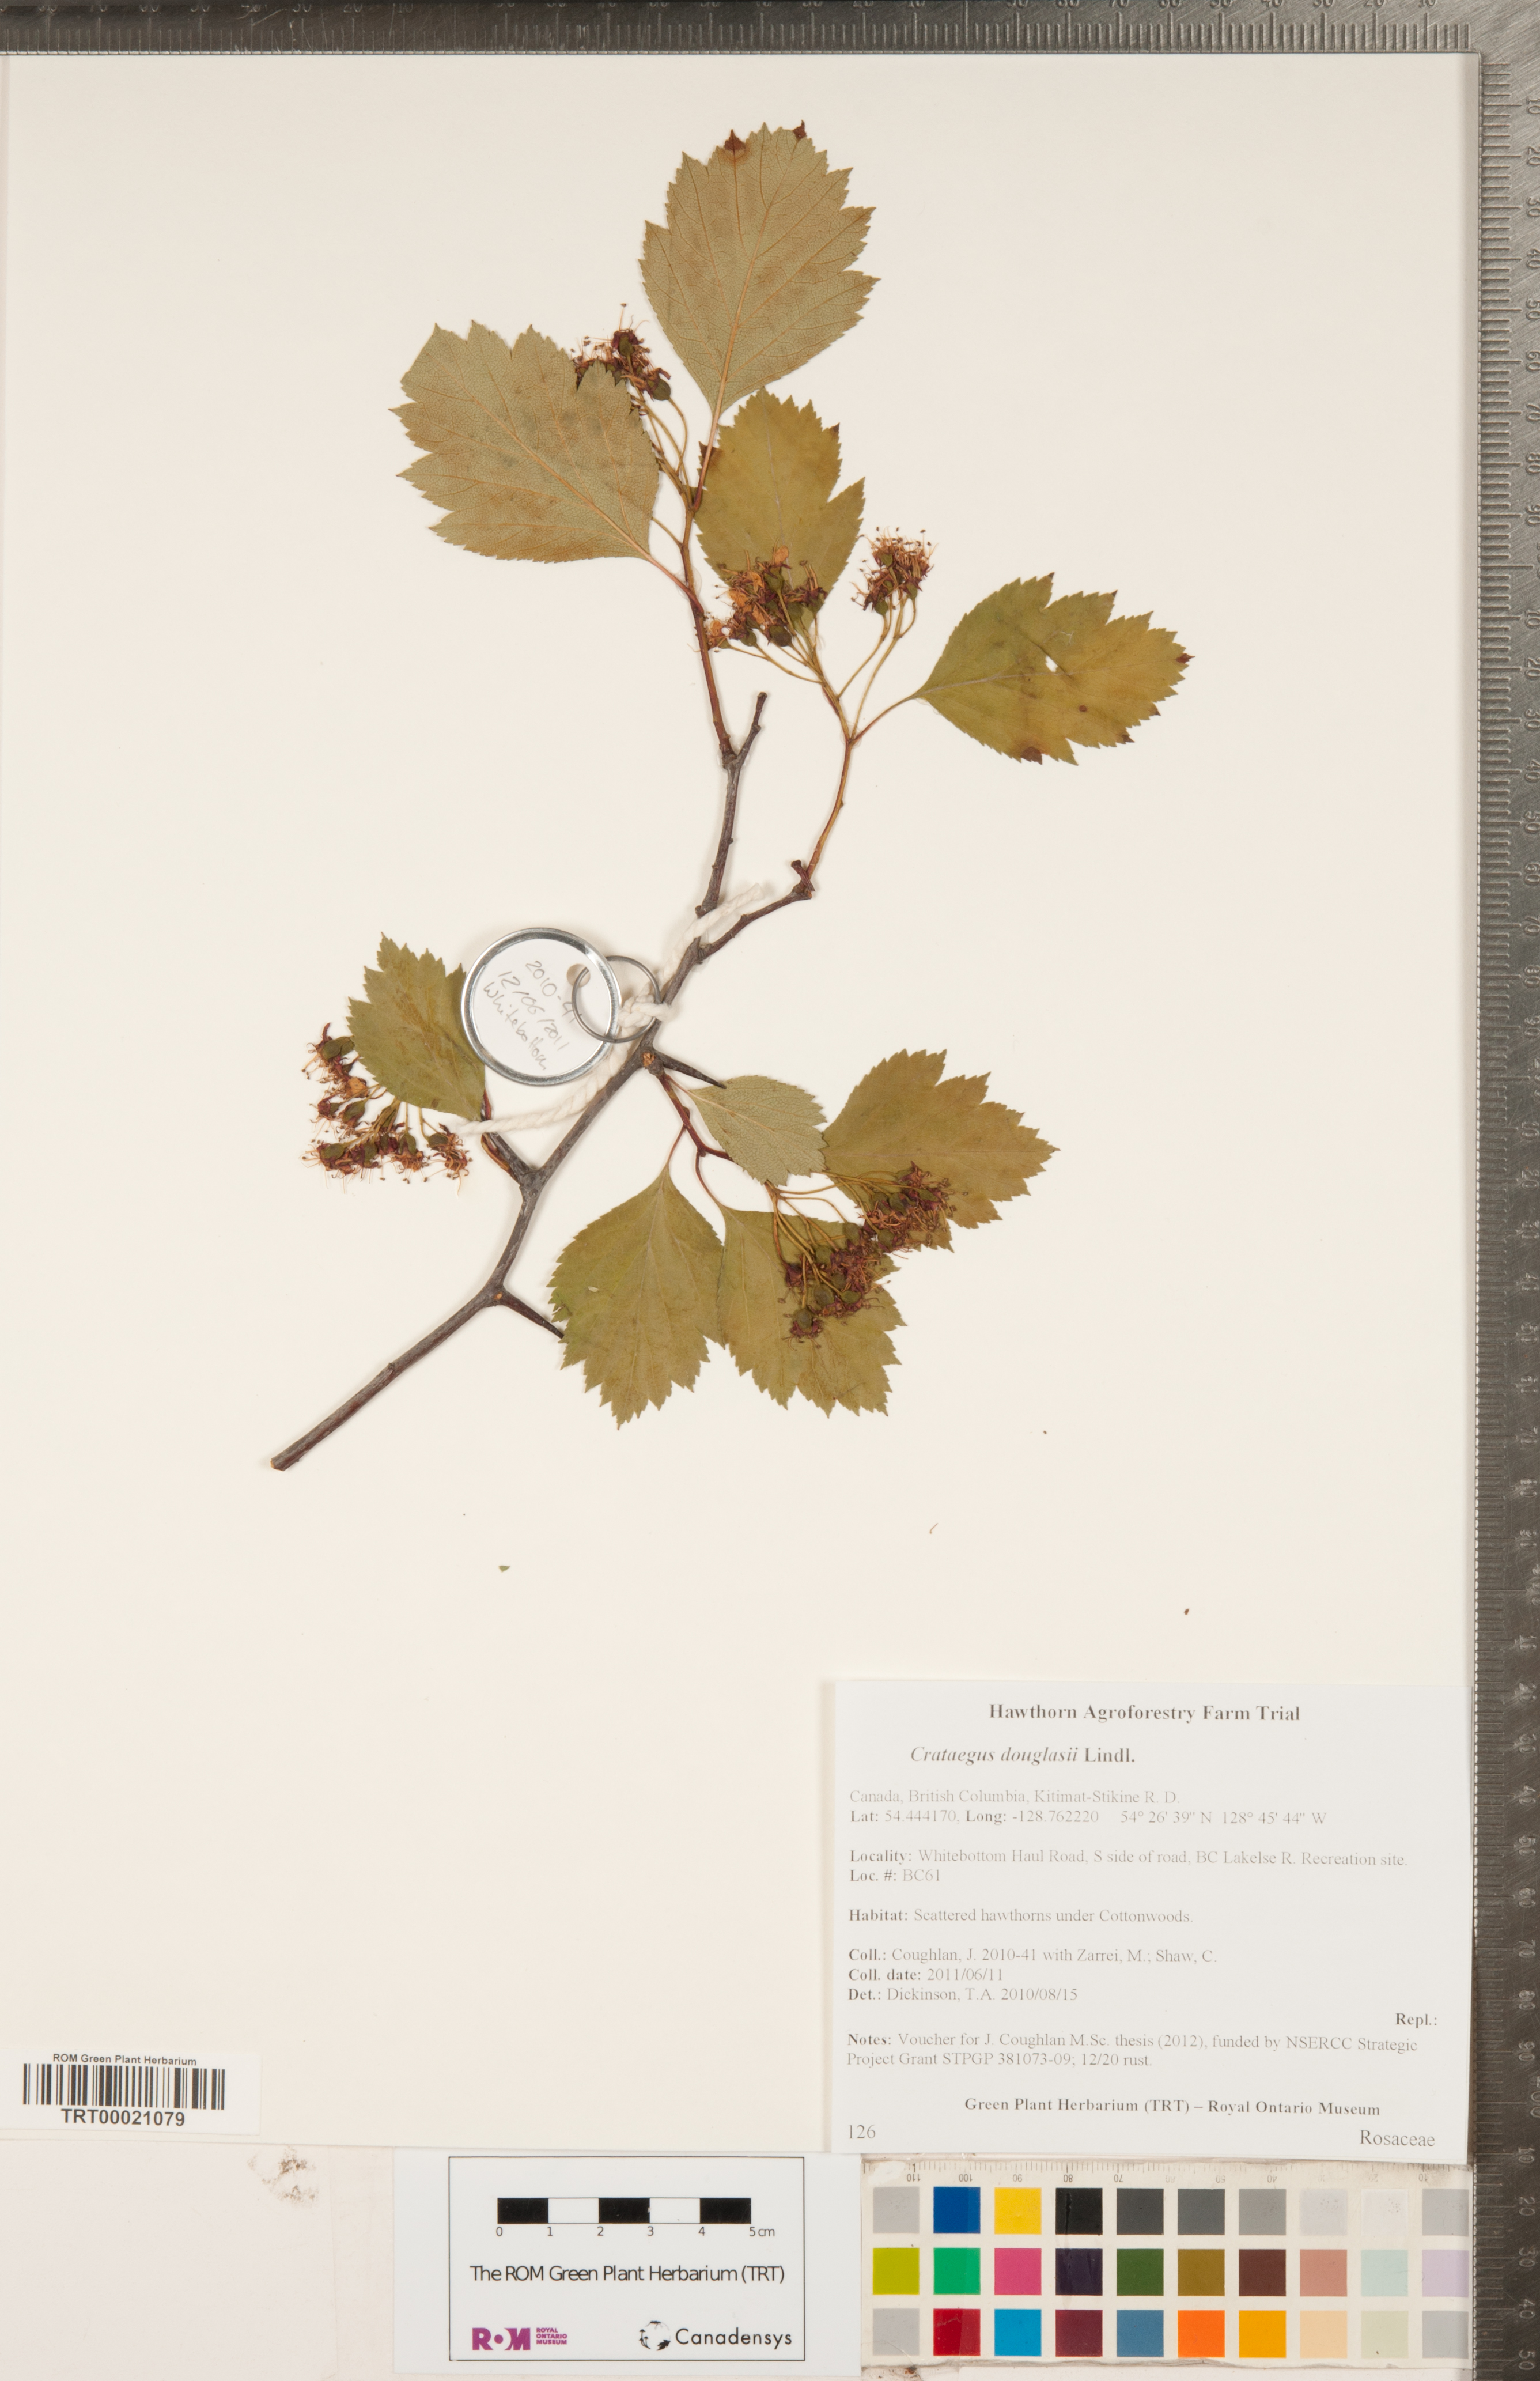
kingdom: Plantae
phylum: Tracheophyta
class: Magnoliopsida
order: Rosales
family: Rosaceae
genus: Crataegus
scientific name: Crataegus douglasii
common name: Black hawthorn
